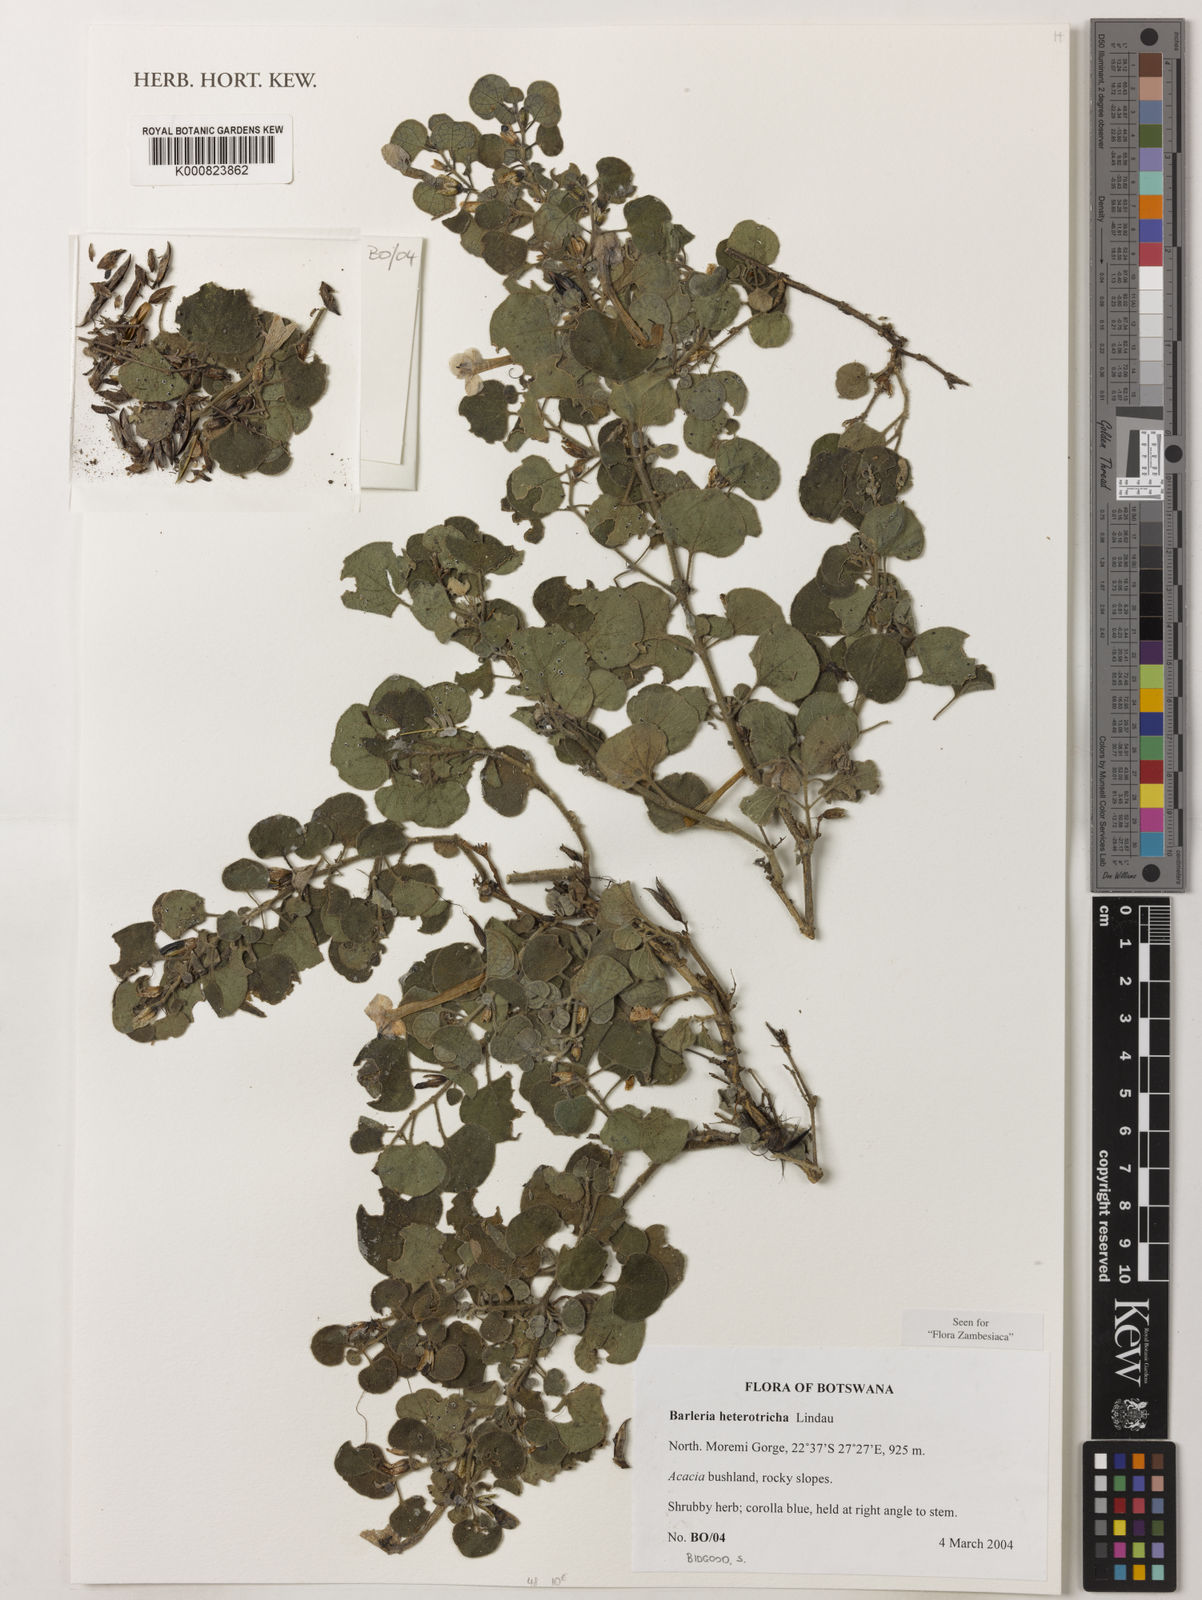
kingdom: Plantae
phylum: Tracheophyta
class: Magnoliopsida
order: Lamiales
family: Acanthaceae
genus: Barleria
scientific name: Barleria heterotricha
